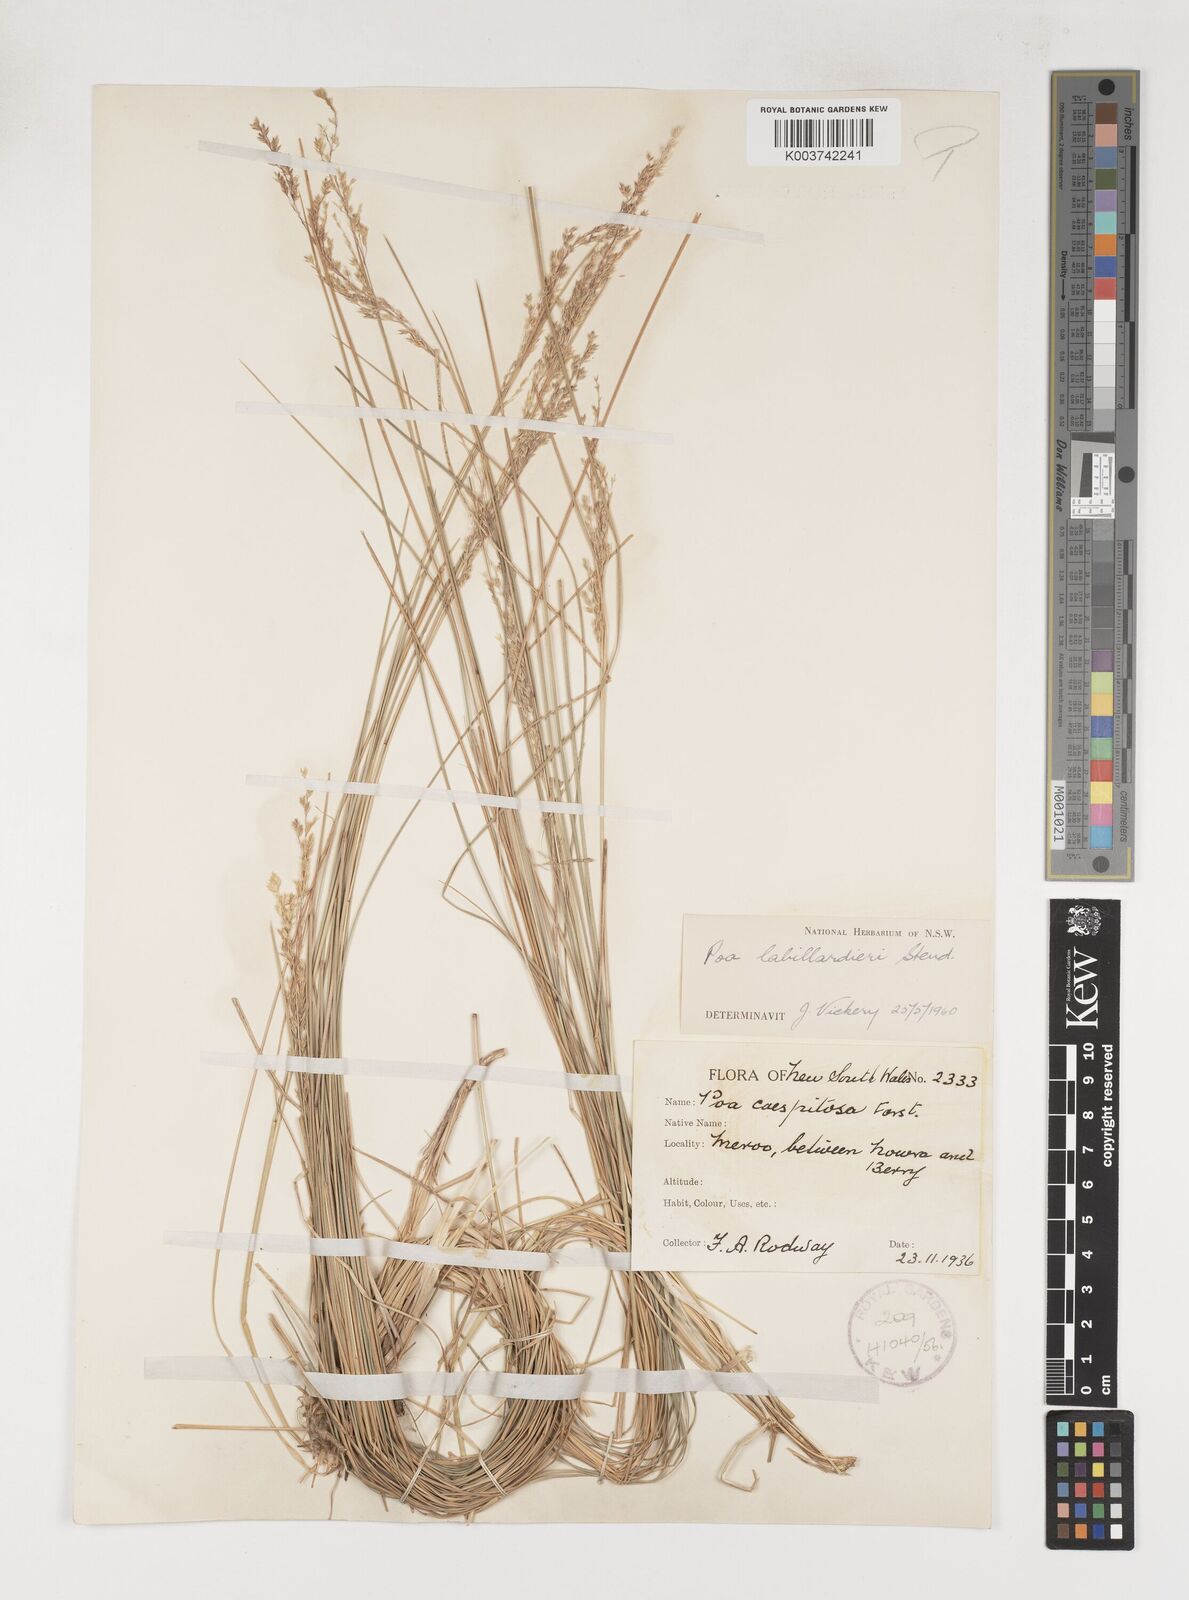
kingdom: Plantae
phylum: Tracheophyta
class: Liliopsida
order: Poales
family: Poaceae
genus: Poa
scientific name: Poa labillardierei
